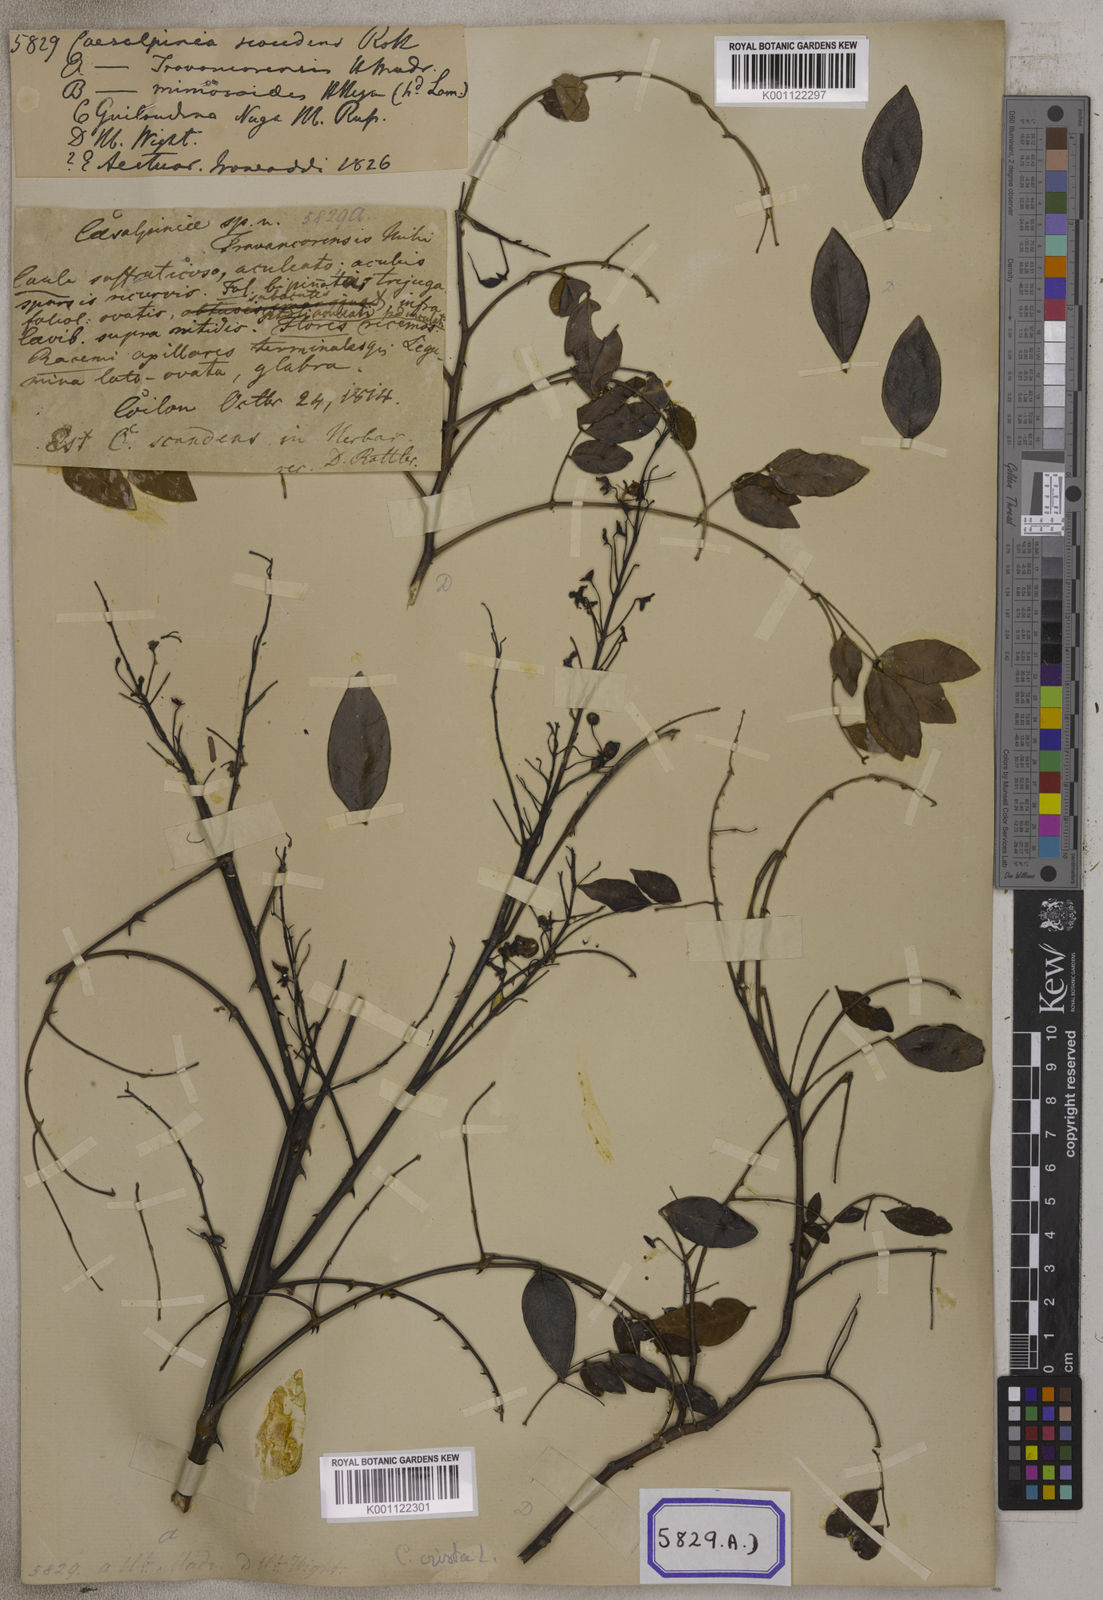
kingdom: Plantae
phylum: Tracheophyta
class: Magnoliopsida
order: Fabales
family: Fabaceae
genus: Caesalpinia
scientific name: Caesalpinia Ticanto crista
